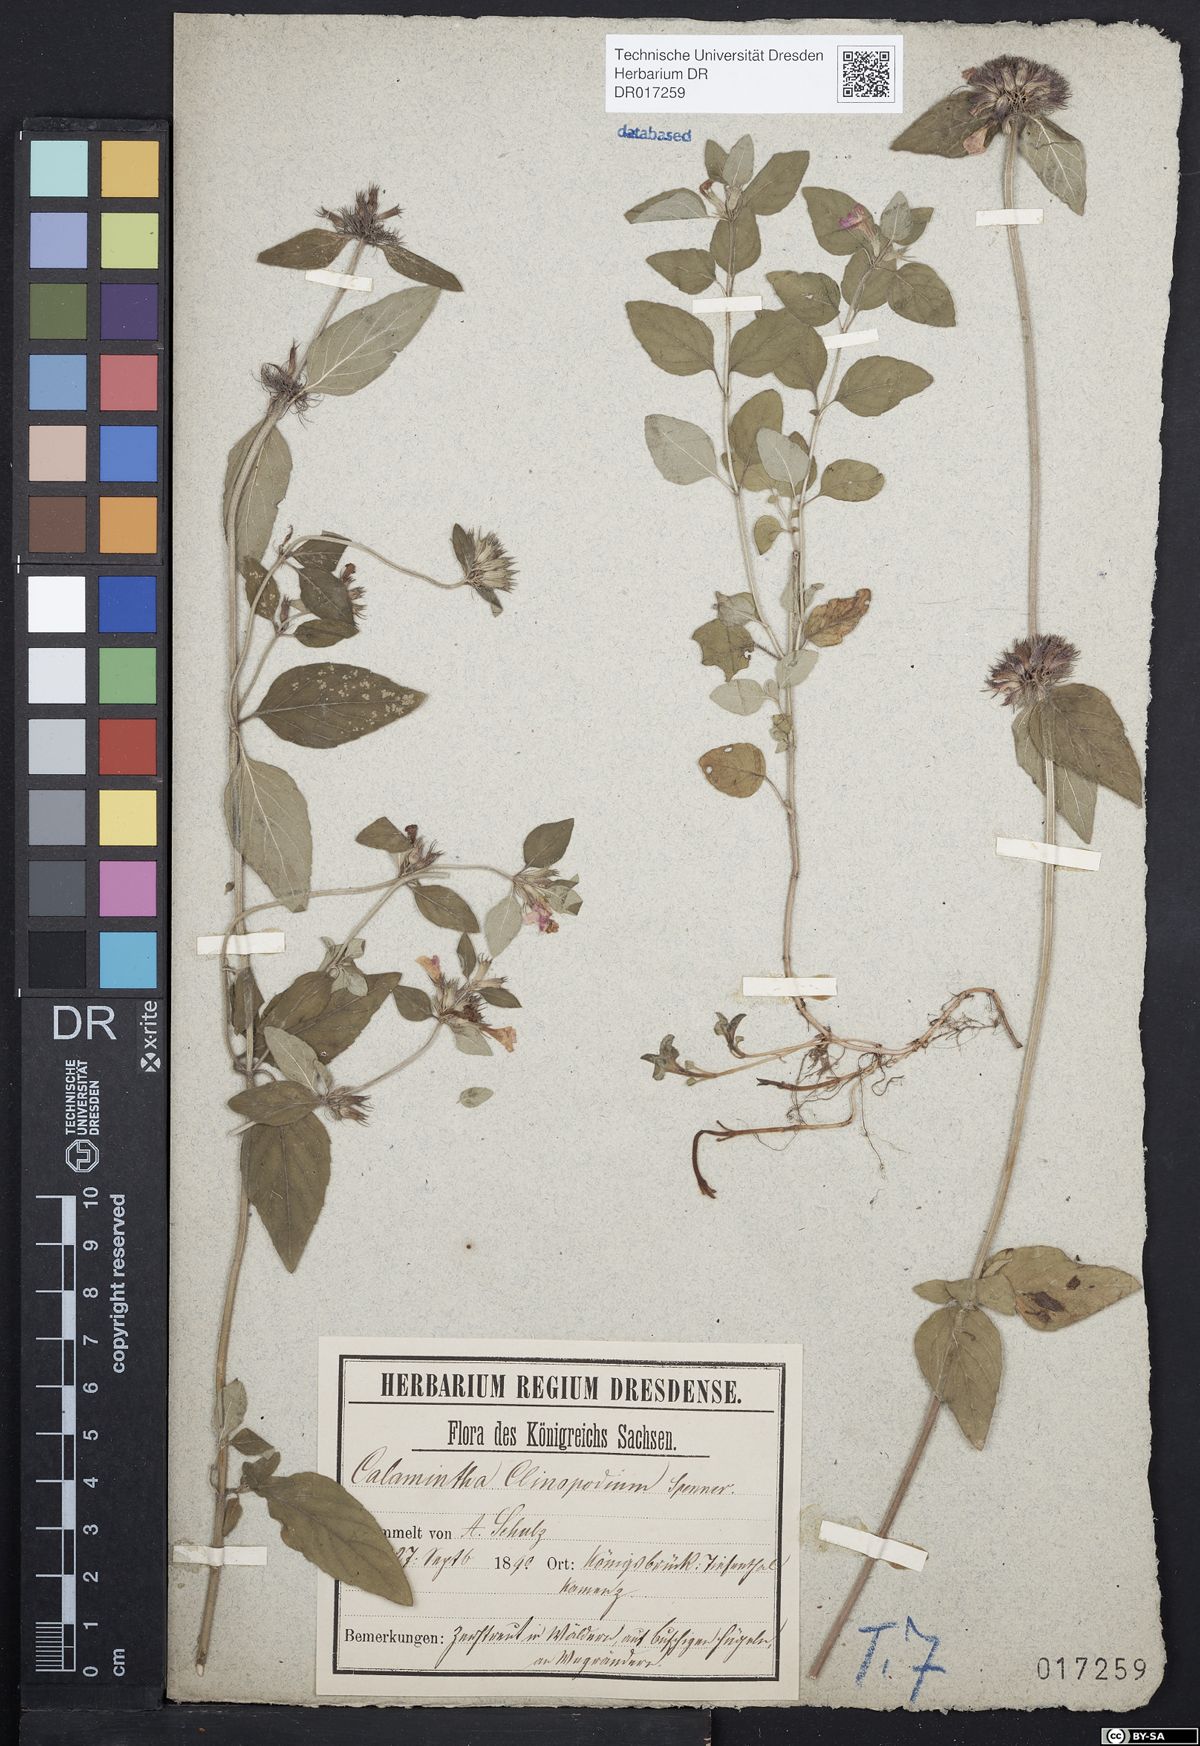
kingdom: Plantae
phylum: Tracheophyta
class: Magnoliopsida
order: Lamiales
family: Lamiaceae
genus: Clinopodium
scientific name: Clinopodium vulgare
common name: Wild basil
